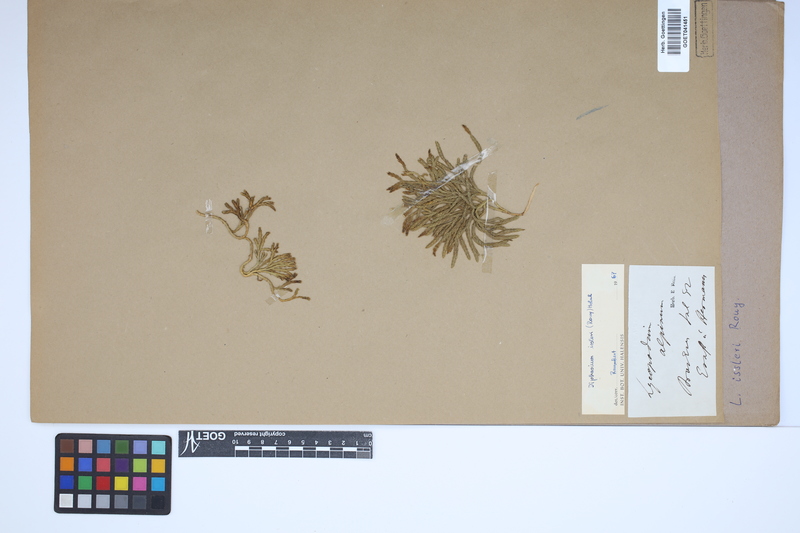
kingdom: Plantae
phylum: Tracheophyta
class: Lycopodiopsida
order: Lycopodiales
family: Lycopodiaceae
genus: Diphasiastrum
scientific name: Diphasiastrum issleri
